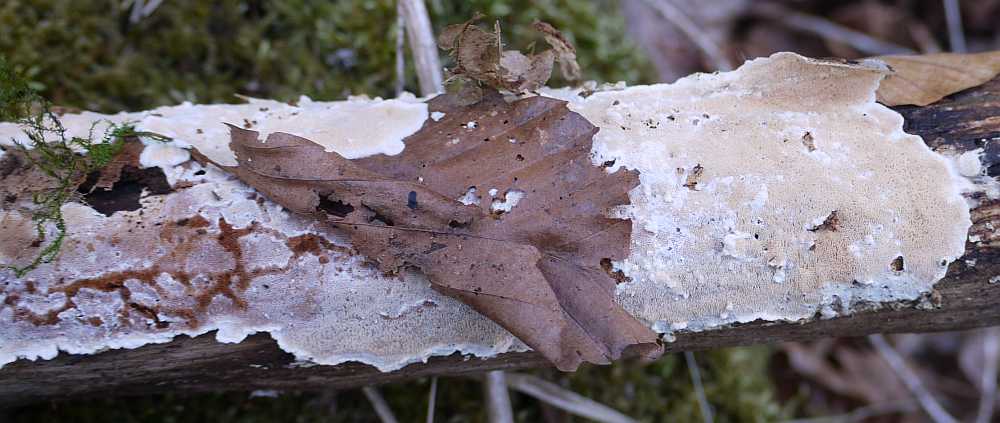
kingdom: Fungi
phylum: Basidiomycota
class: Agaricomycetes
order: Polyporales
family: Steccherinaceae
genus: Junghuhnia
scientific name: Junghuhnia nitida
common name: almindelig skønporesvamp
